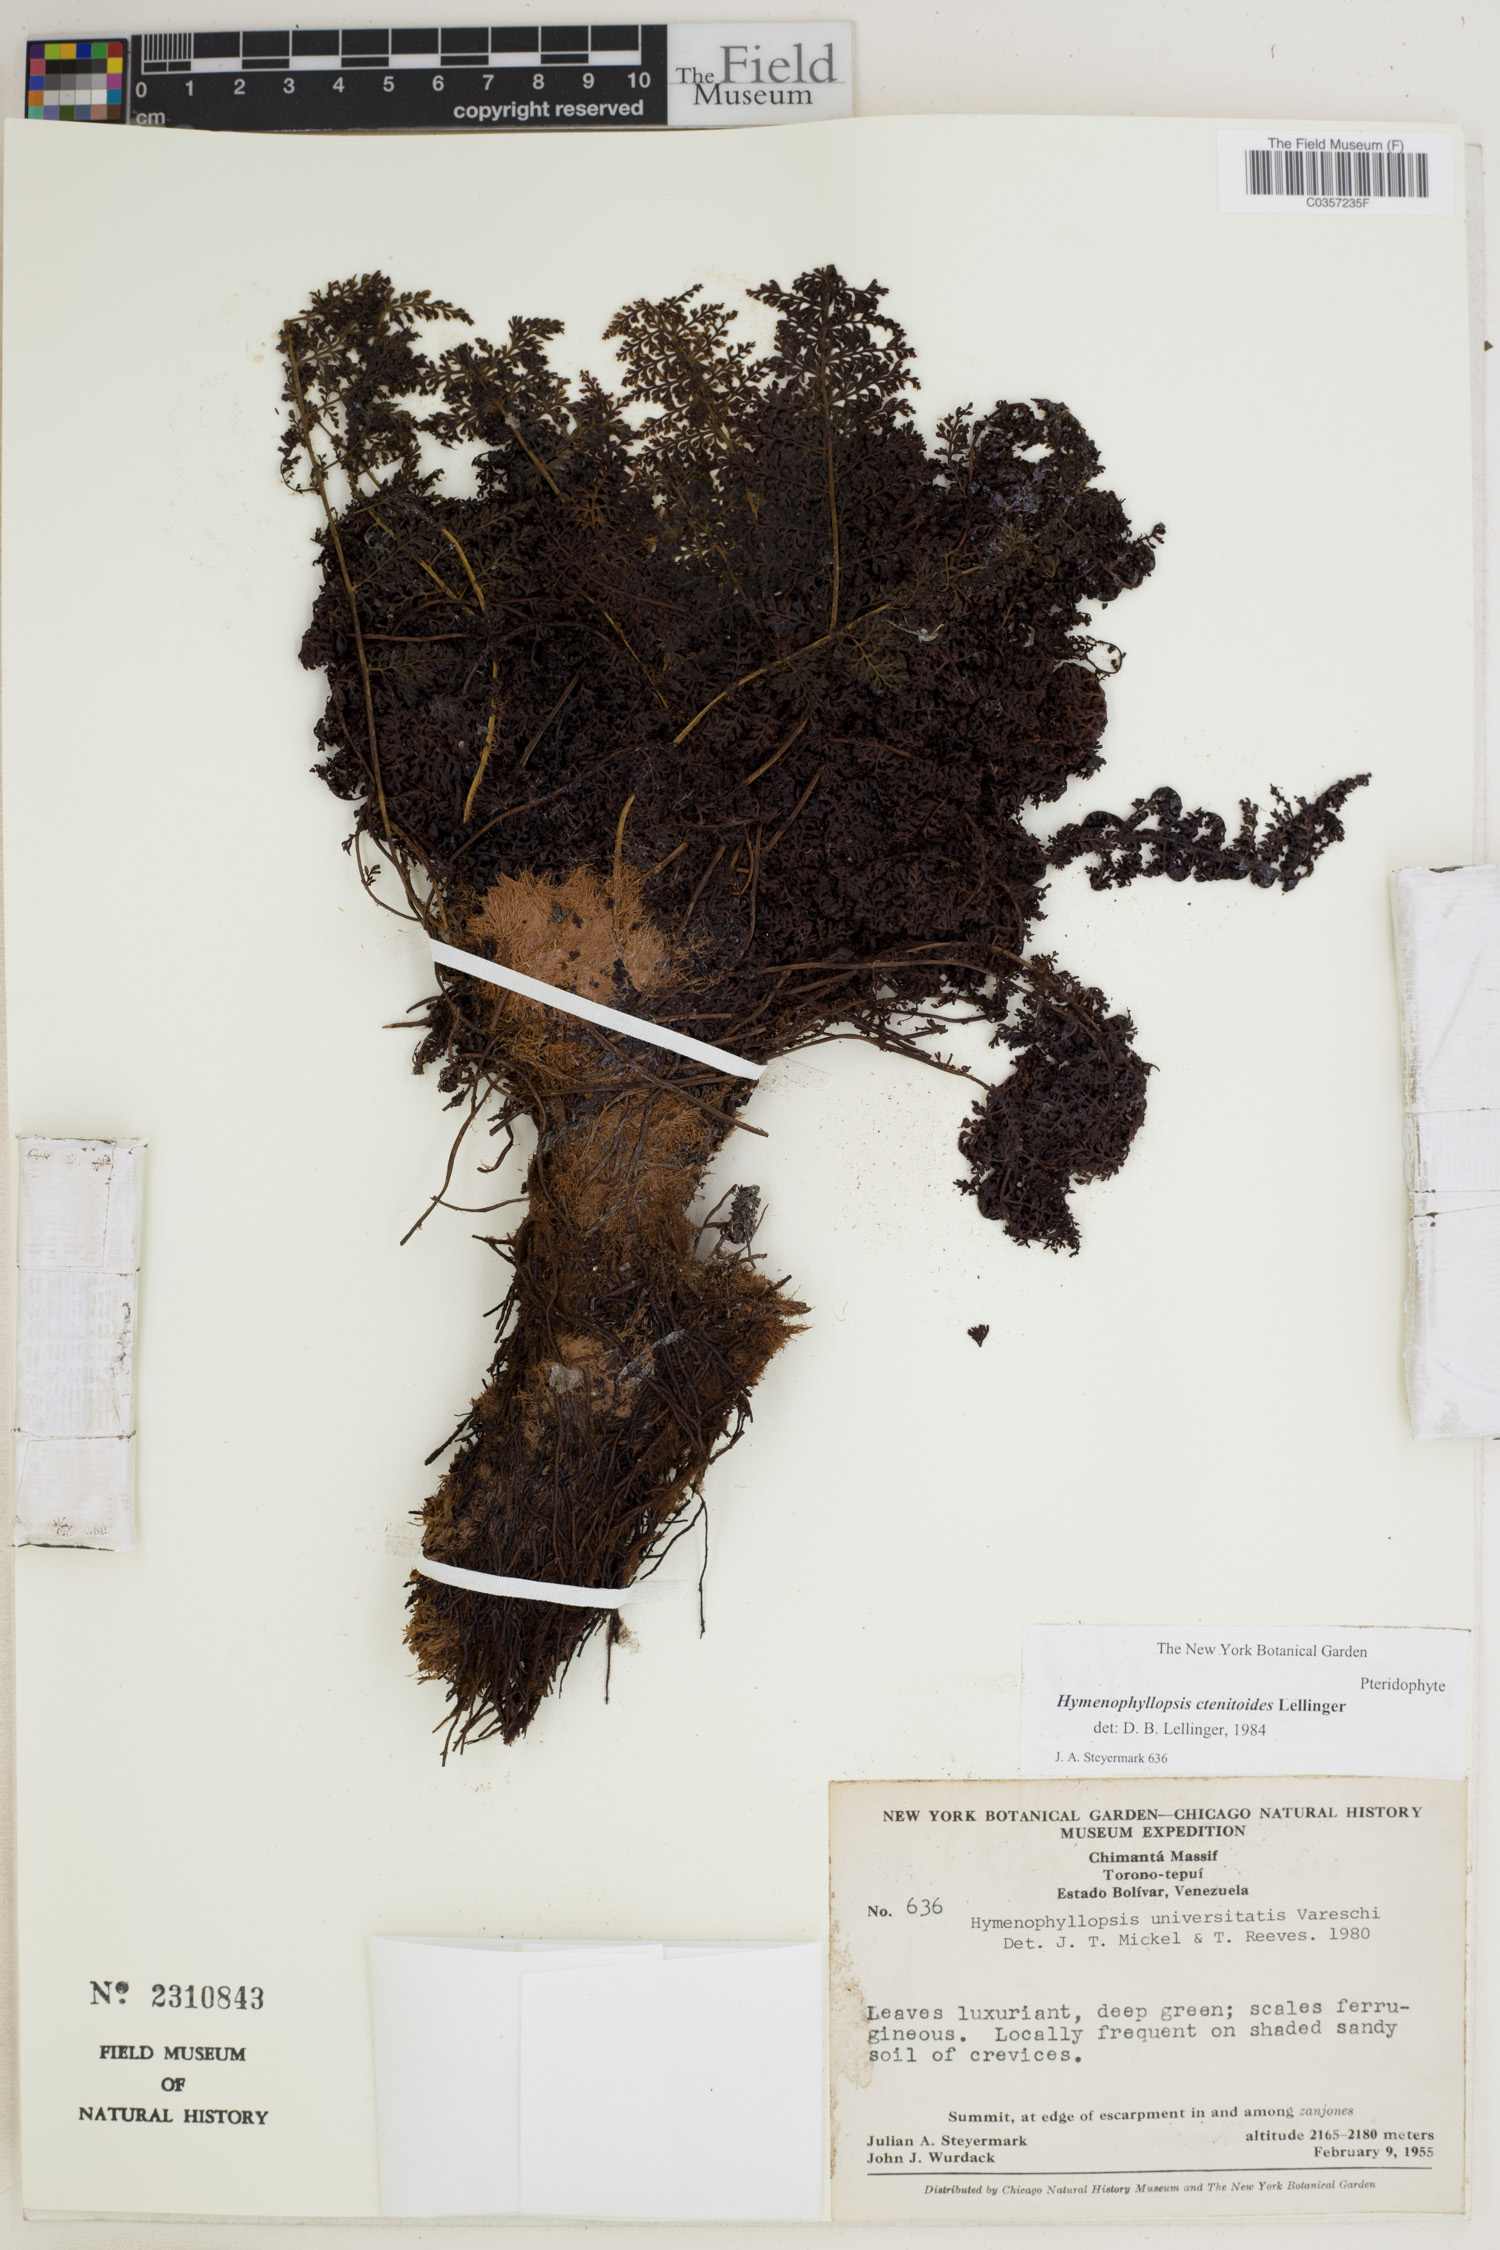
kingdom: Plantae
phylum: Tracheophyta
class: Polypodiopsida
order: Cyatheales
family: Cyatheaceae
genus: Cyathea
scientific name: Cyathea ctenitoides
